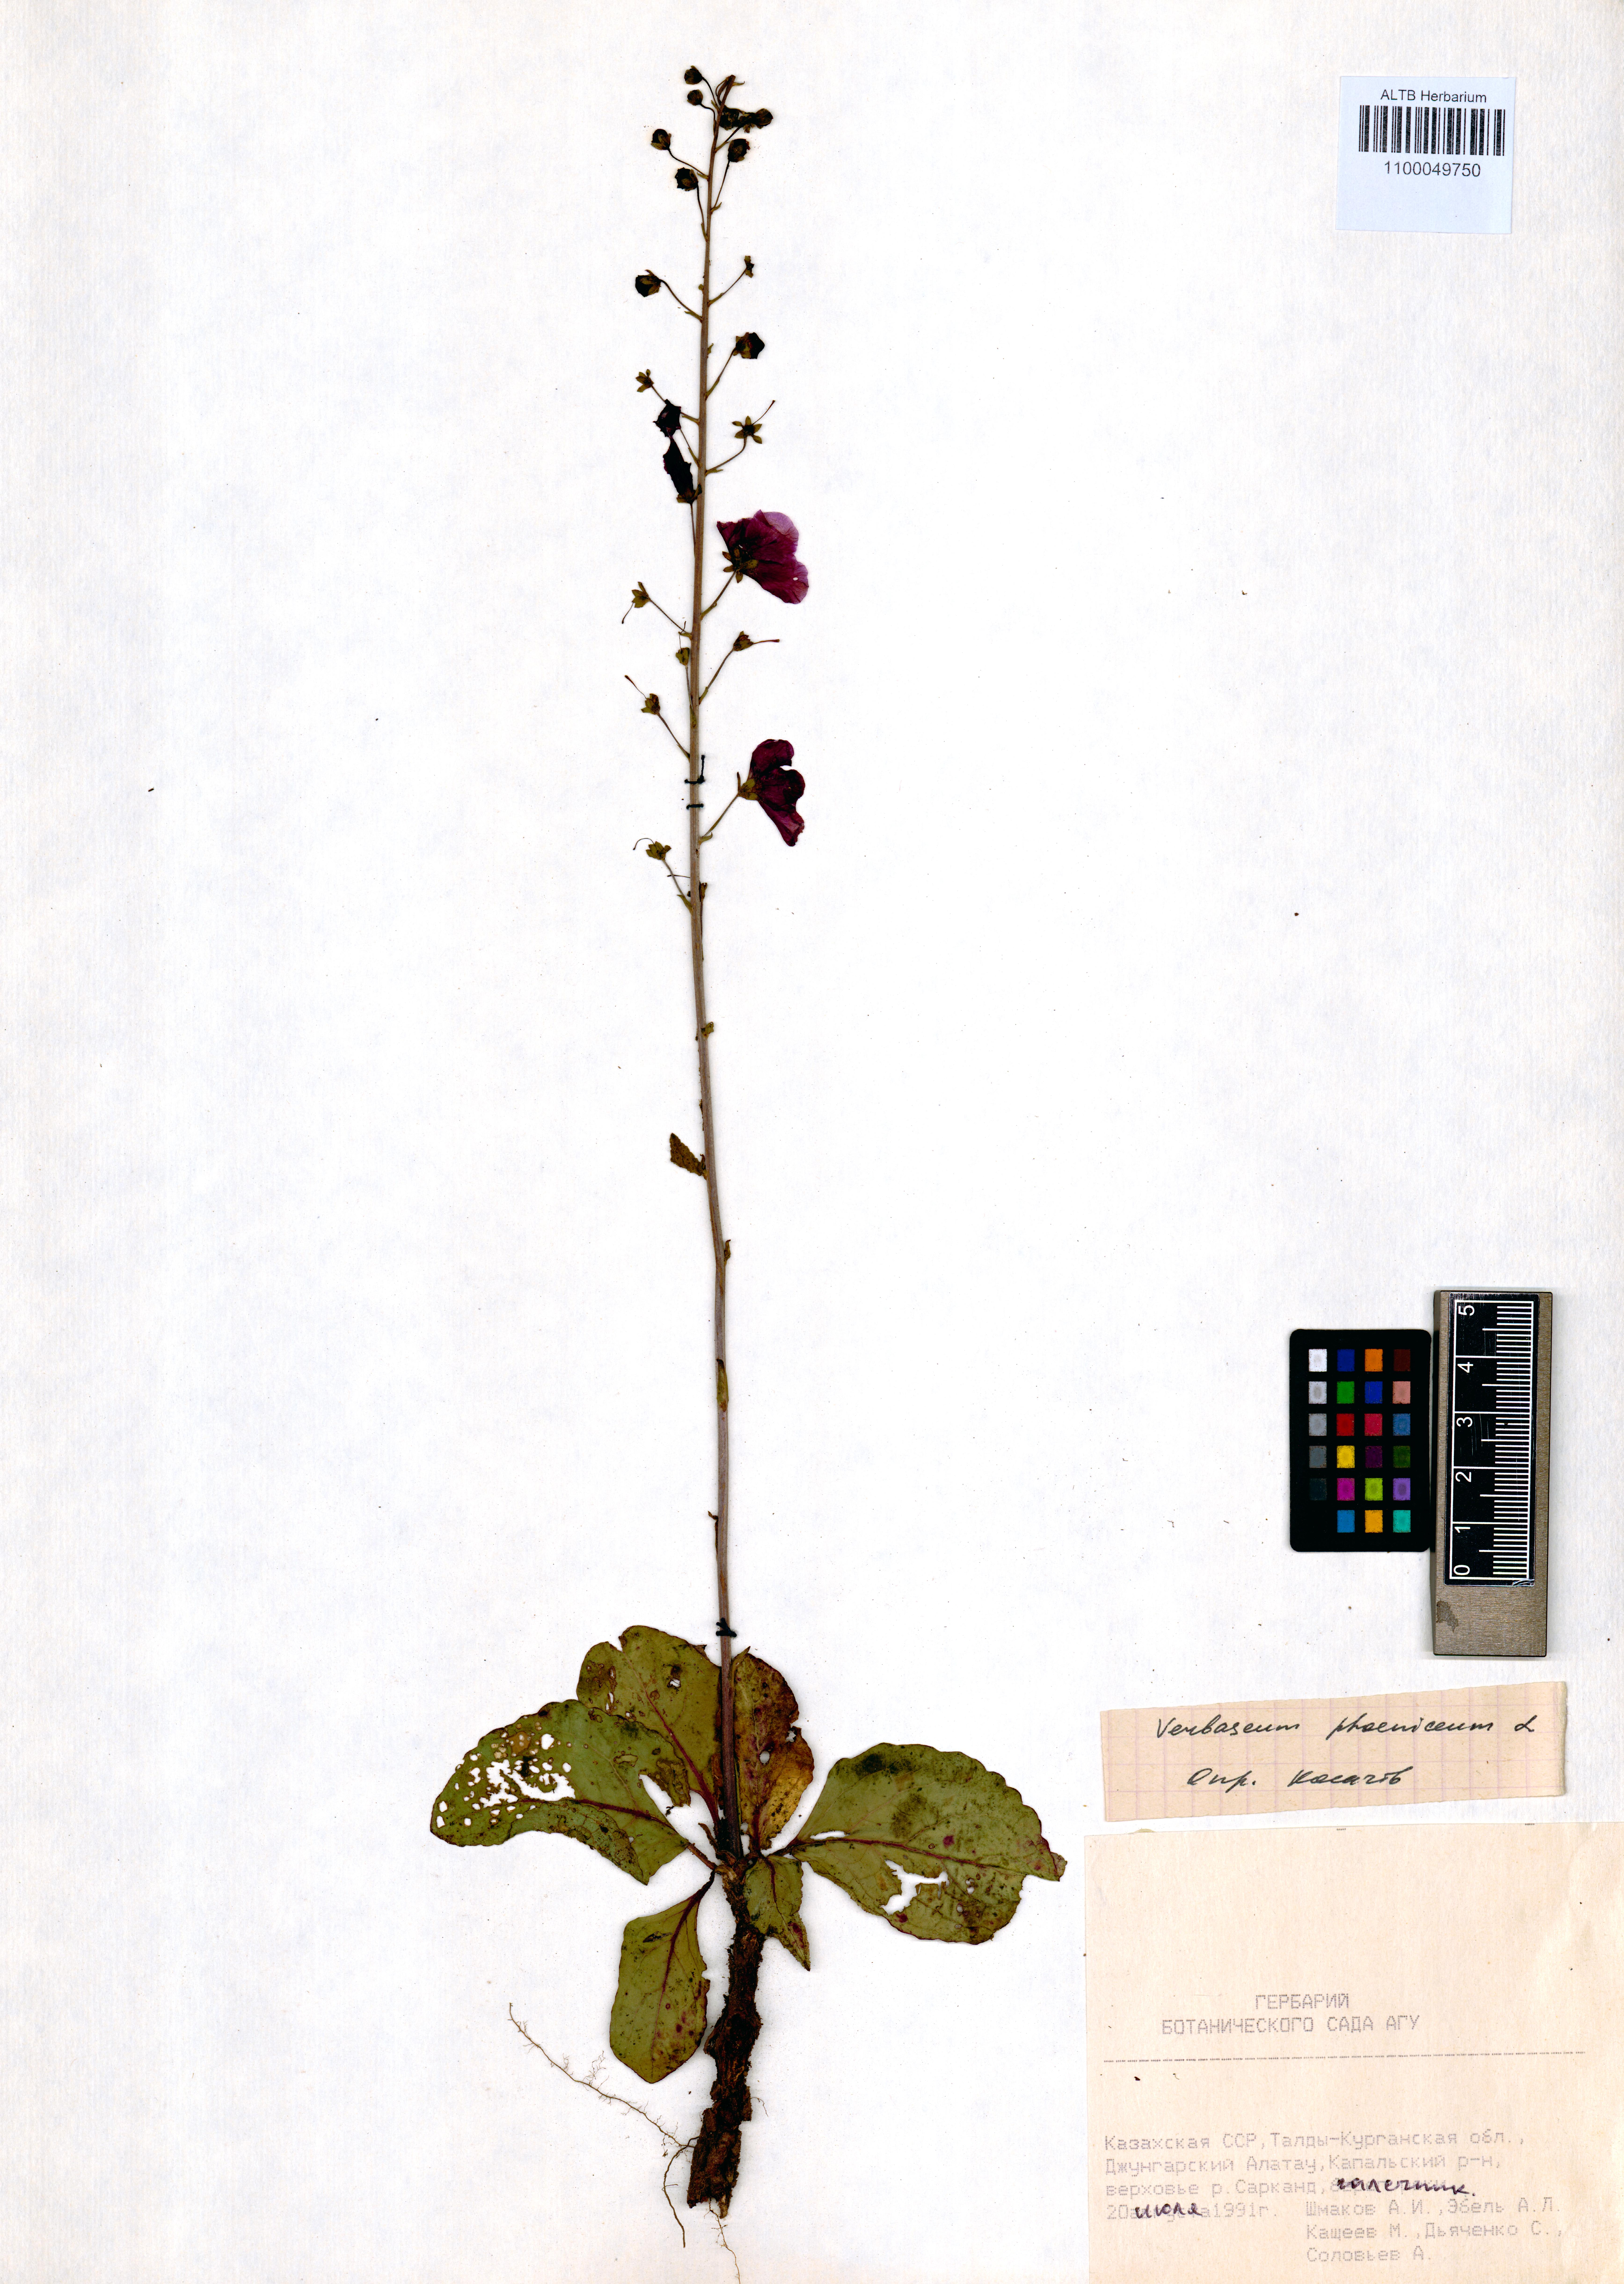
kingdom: Plantae
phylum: Tracheophyta
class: Magnoliopsida
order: Lamiales
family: Scrophulariaceae
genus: Verbascum
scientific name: Verbascum phoeniceum
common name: Purple mullein
